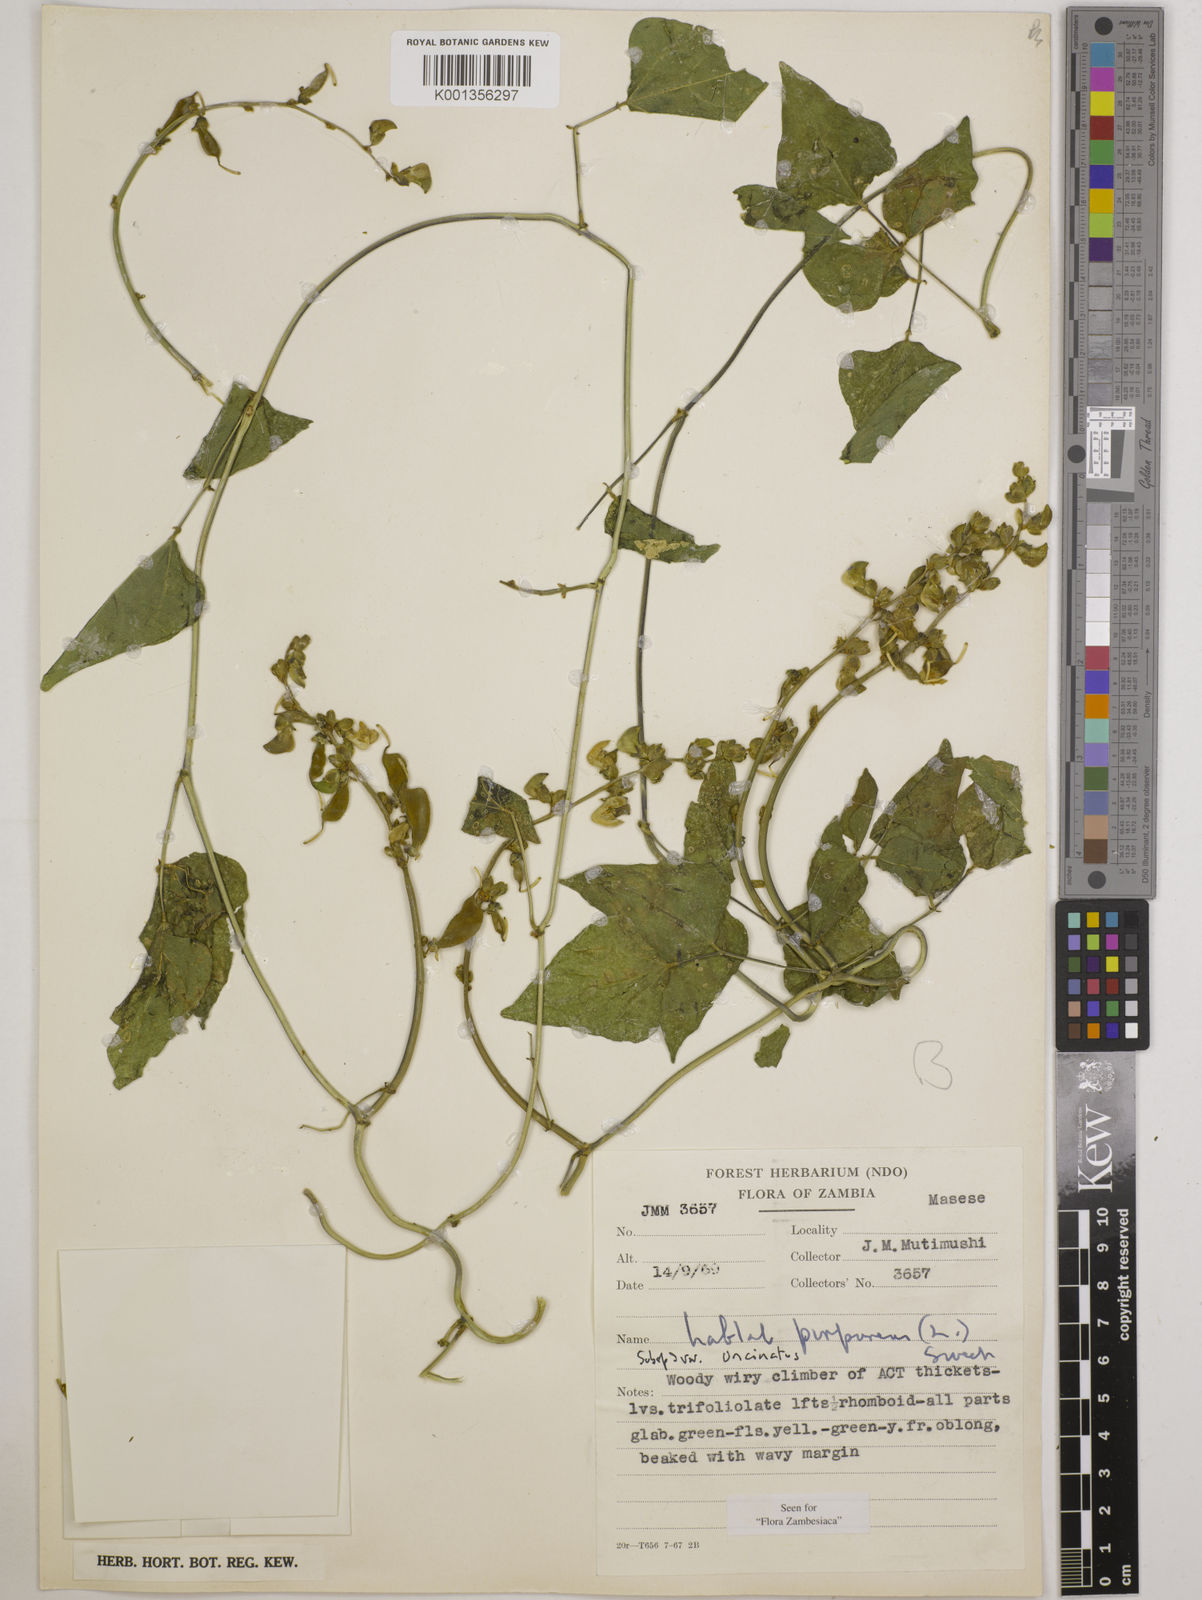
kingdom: Plantae
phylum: Tracheophyta
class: Magnoliopsida
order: Fabales
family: Fabaceae
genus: Lablab
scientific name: Lablab
